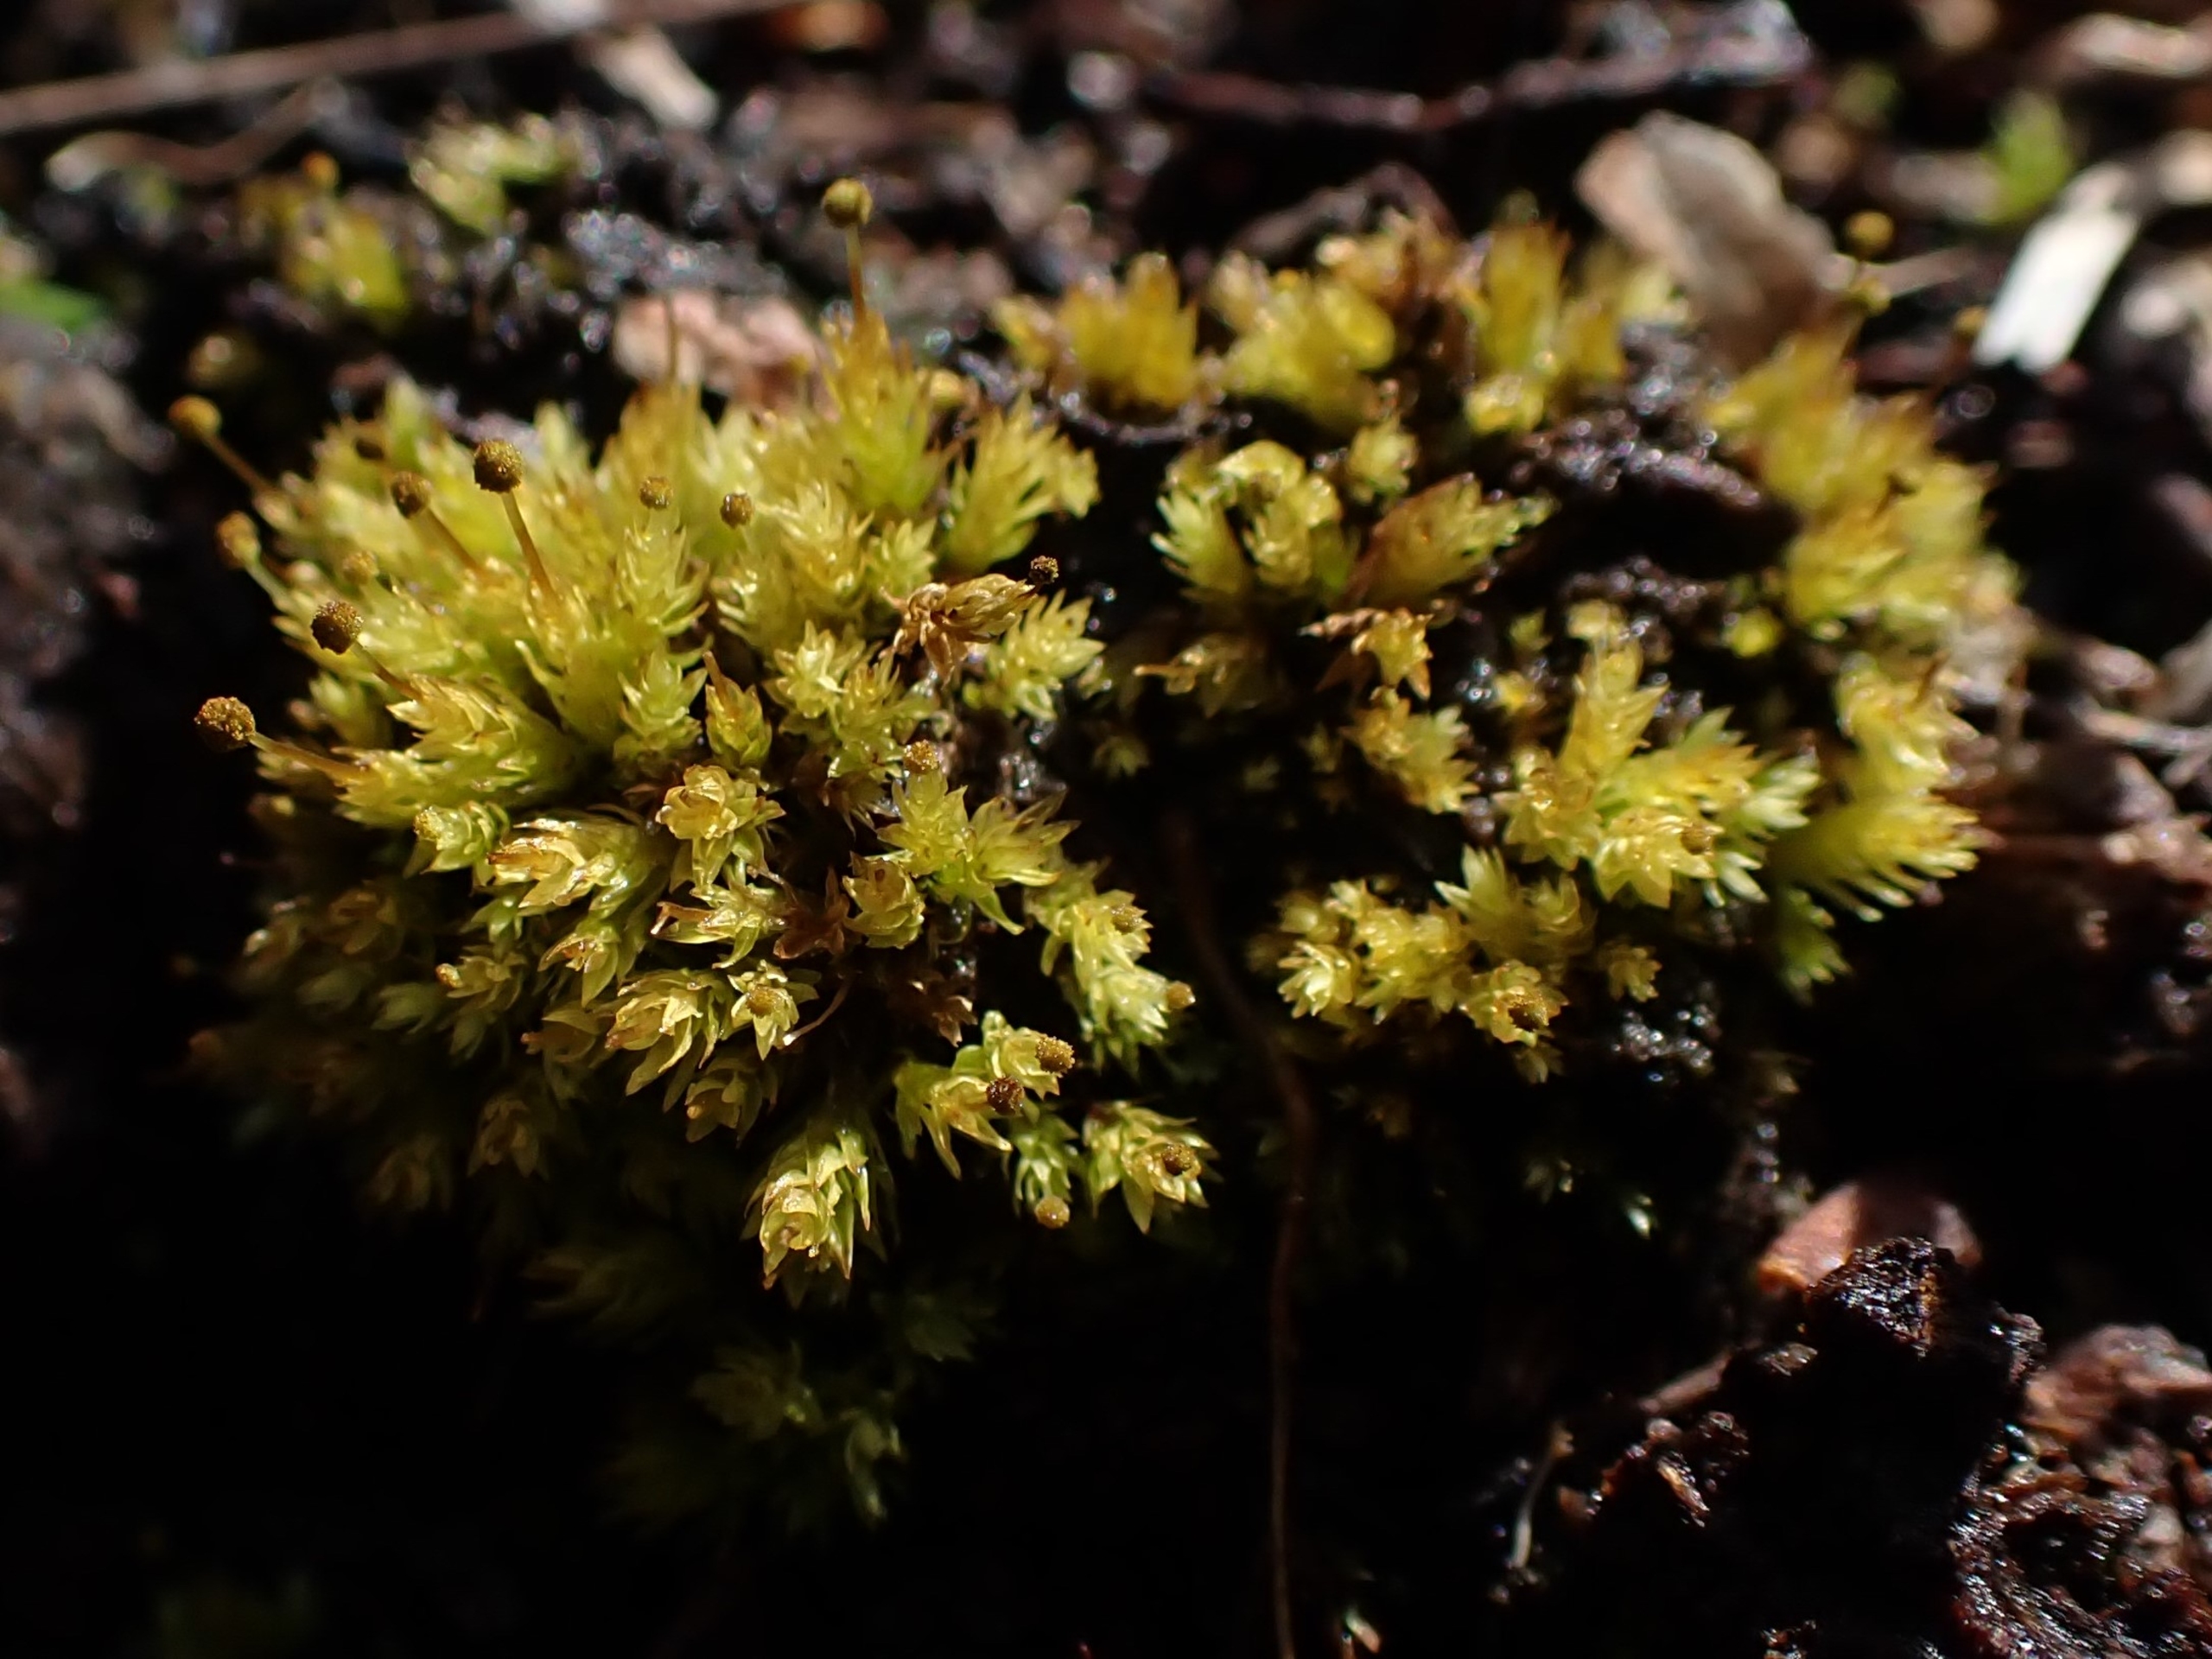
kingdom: Plantae
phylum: Bryophyta
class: Bryopsida
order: Aulacomniales
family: Aulacomniaceae
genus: Aulacomnium
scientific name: Aulacomnium androgynum
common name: Kugle-filtmos
